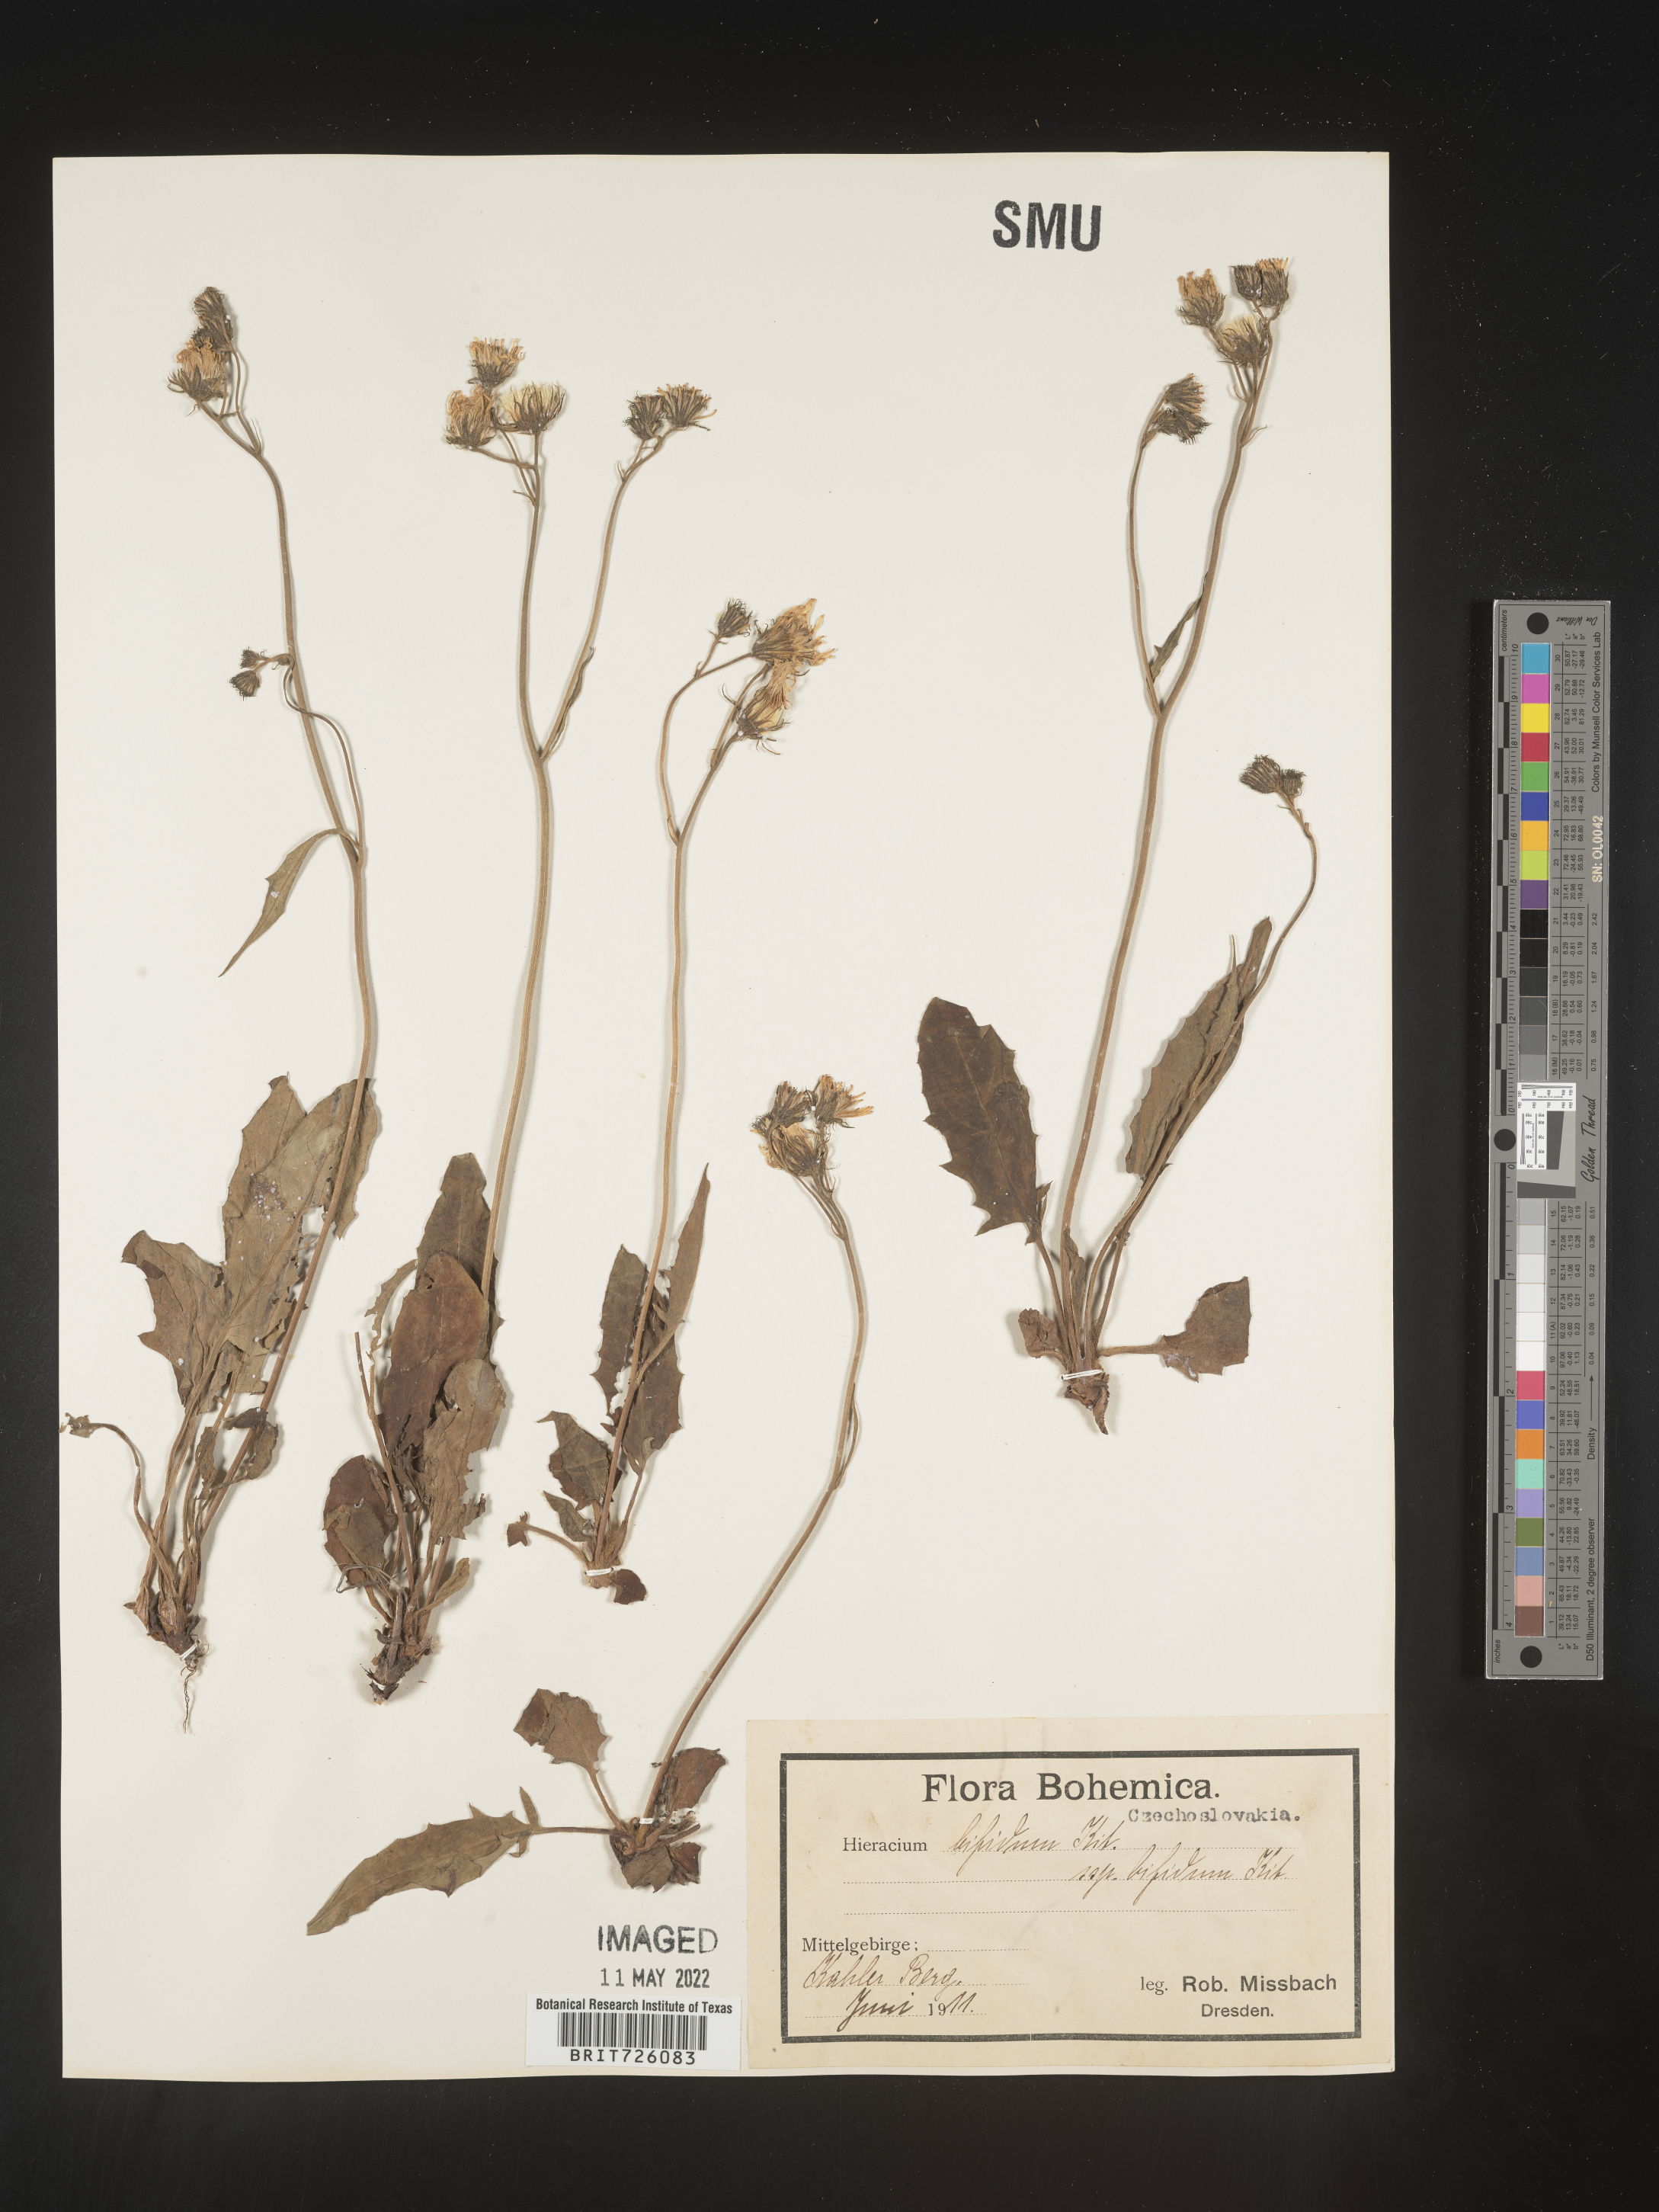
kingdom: Plantae
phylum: Tracheophyta
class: Magnoliopsida
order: Asterales
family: Asteraceae
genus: Hieracium
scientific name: Hieracium
